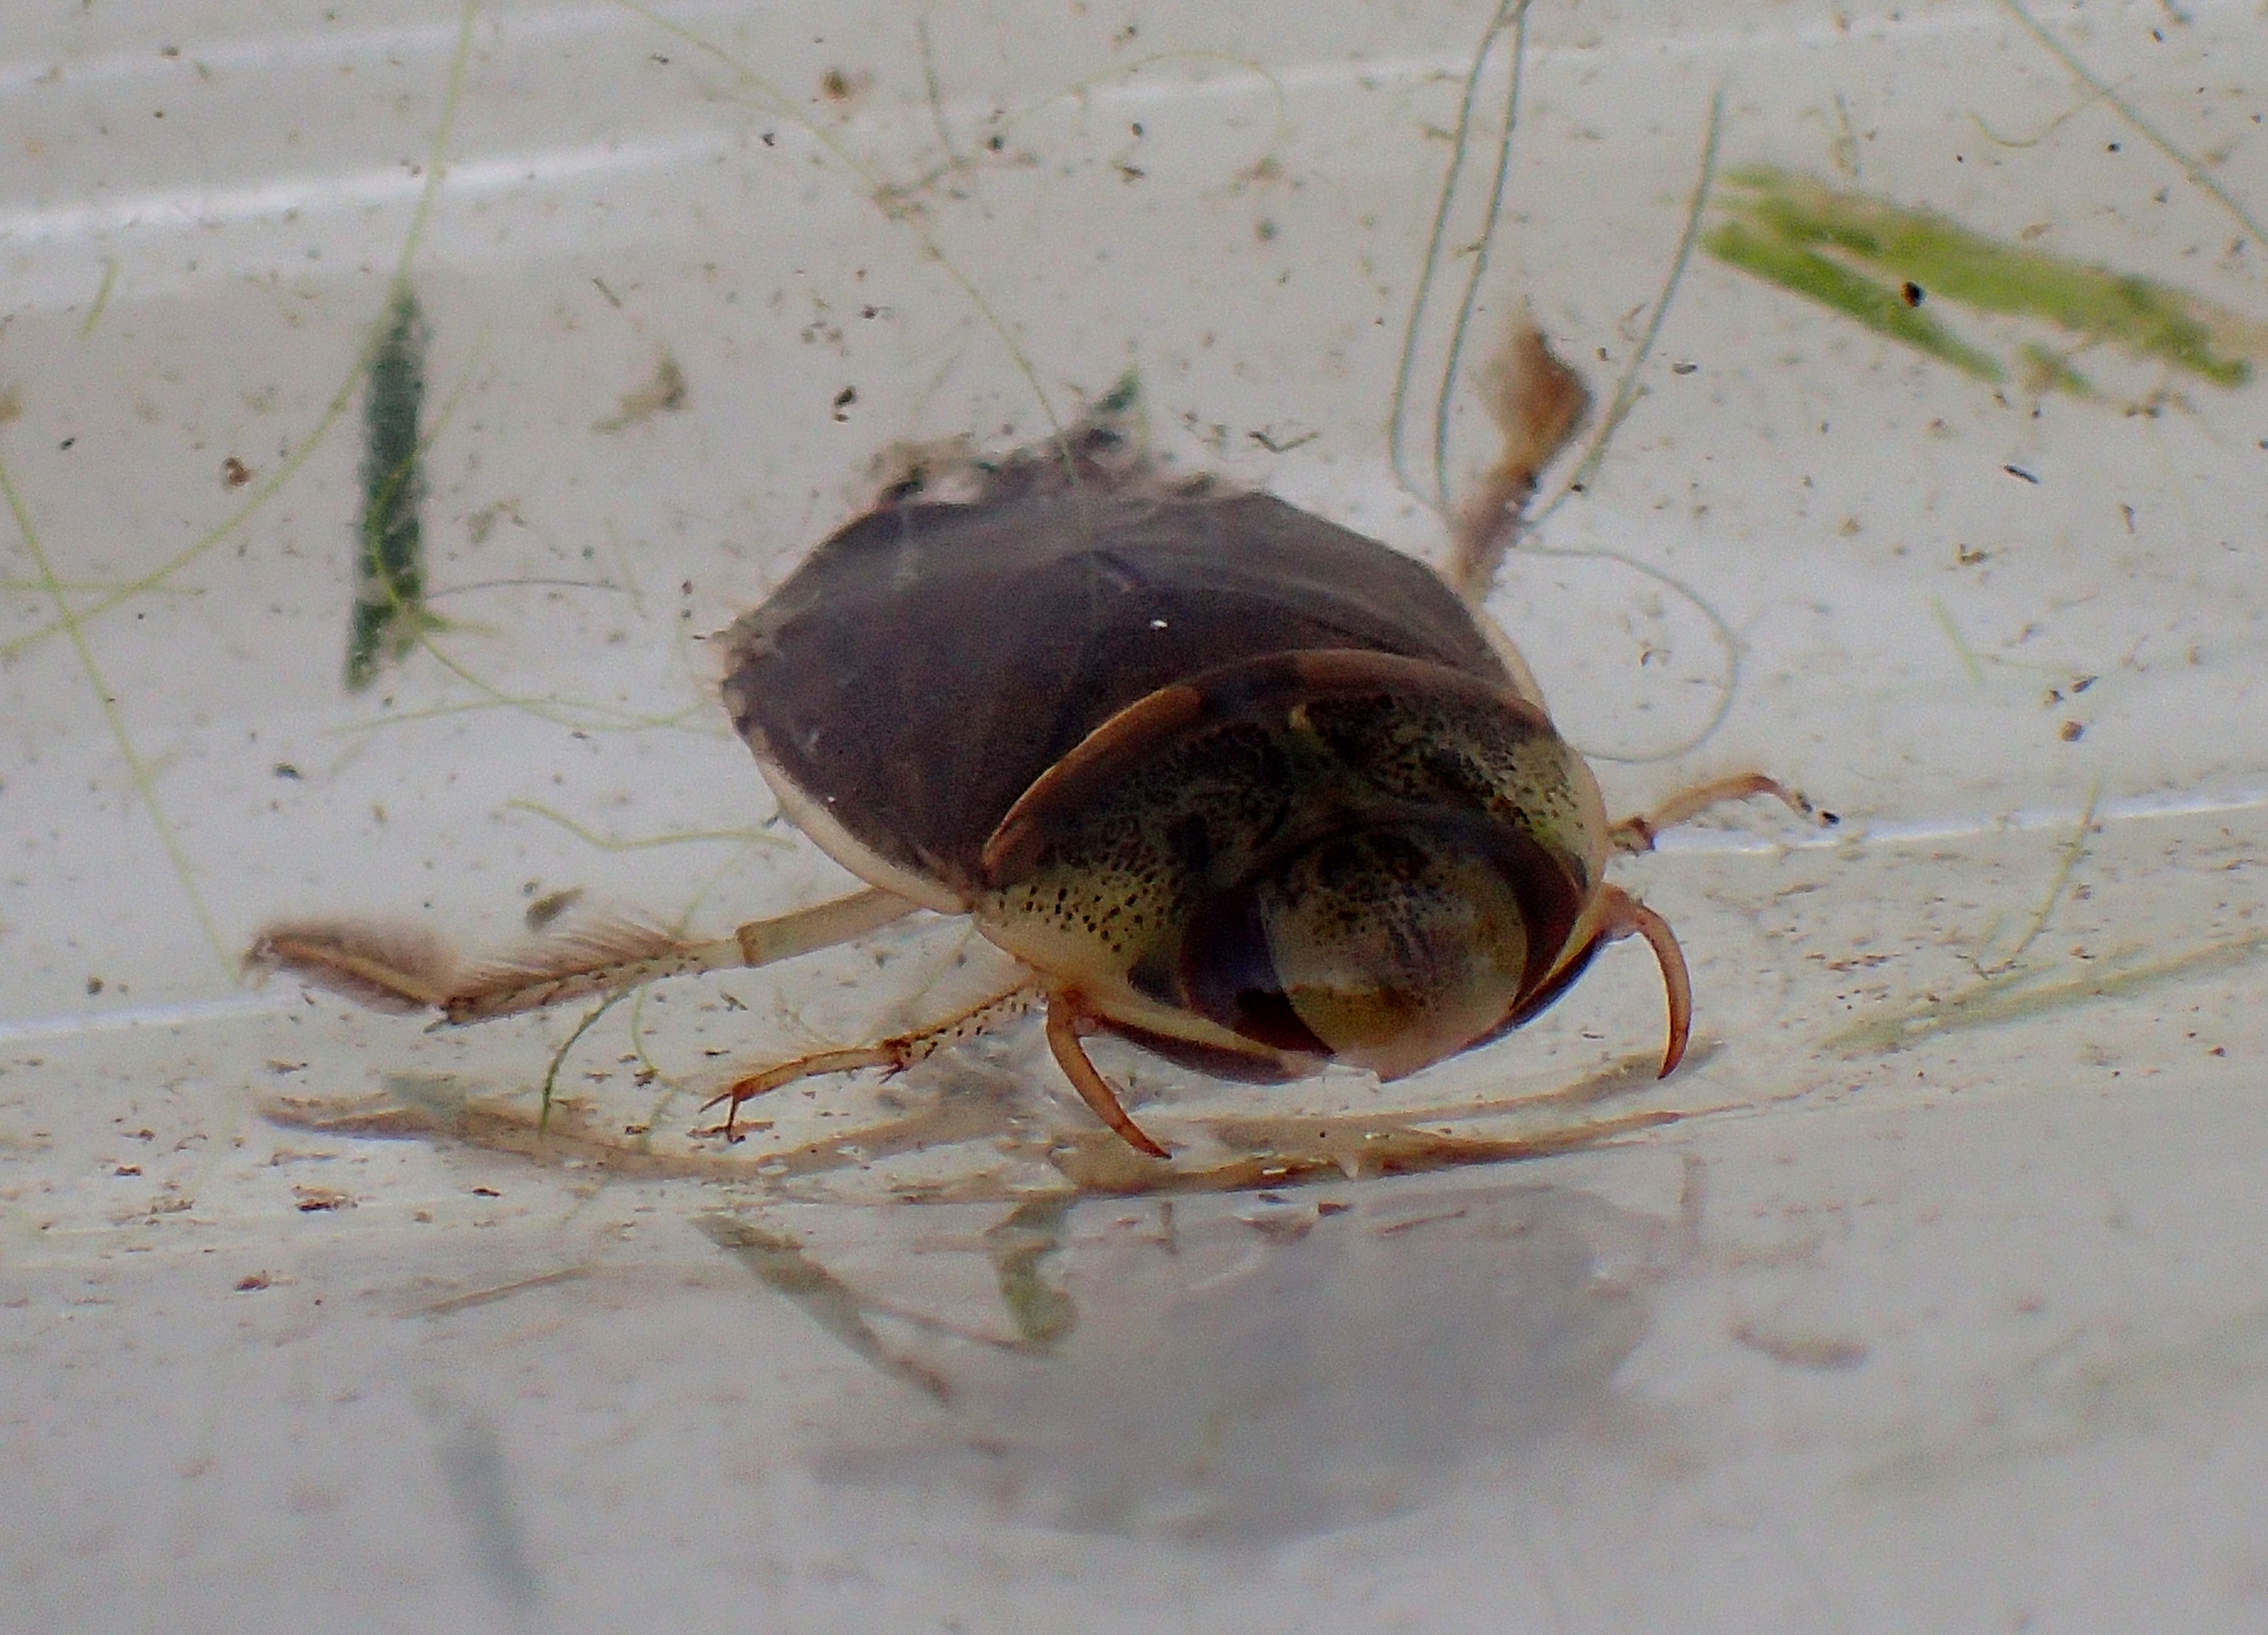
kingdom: Animalia
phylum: Arthropoda
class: Insecta
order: Hemiptera
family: Naucoridae
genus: Ilyocoris
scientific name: Ilyocoris cimicoides
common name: Vandrøver
